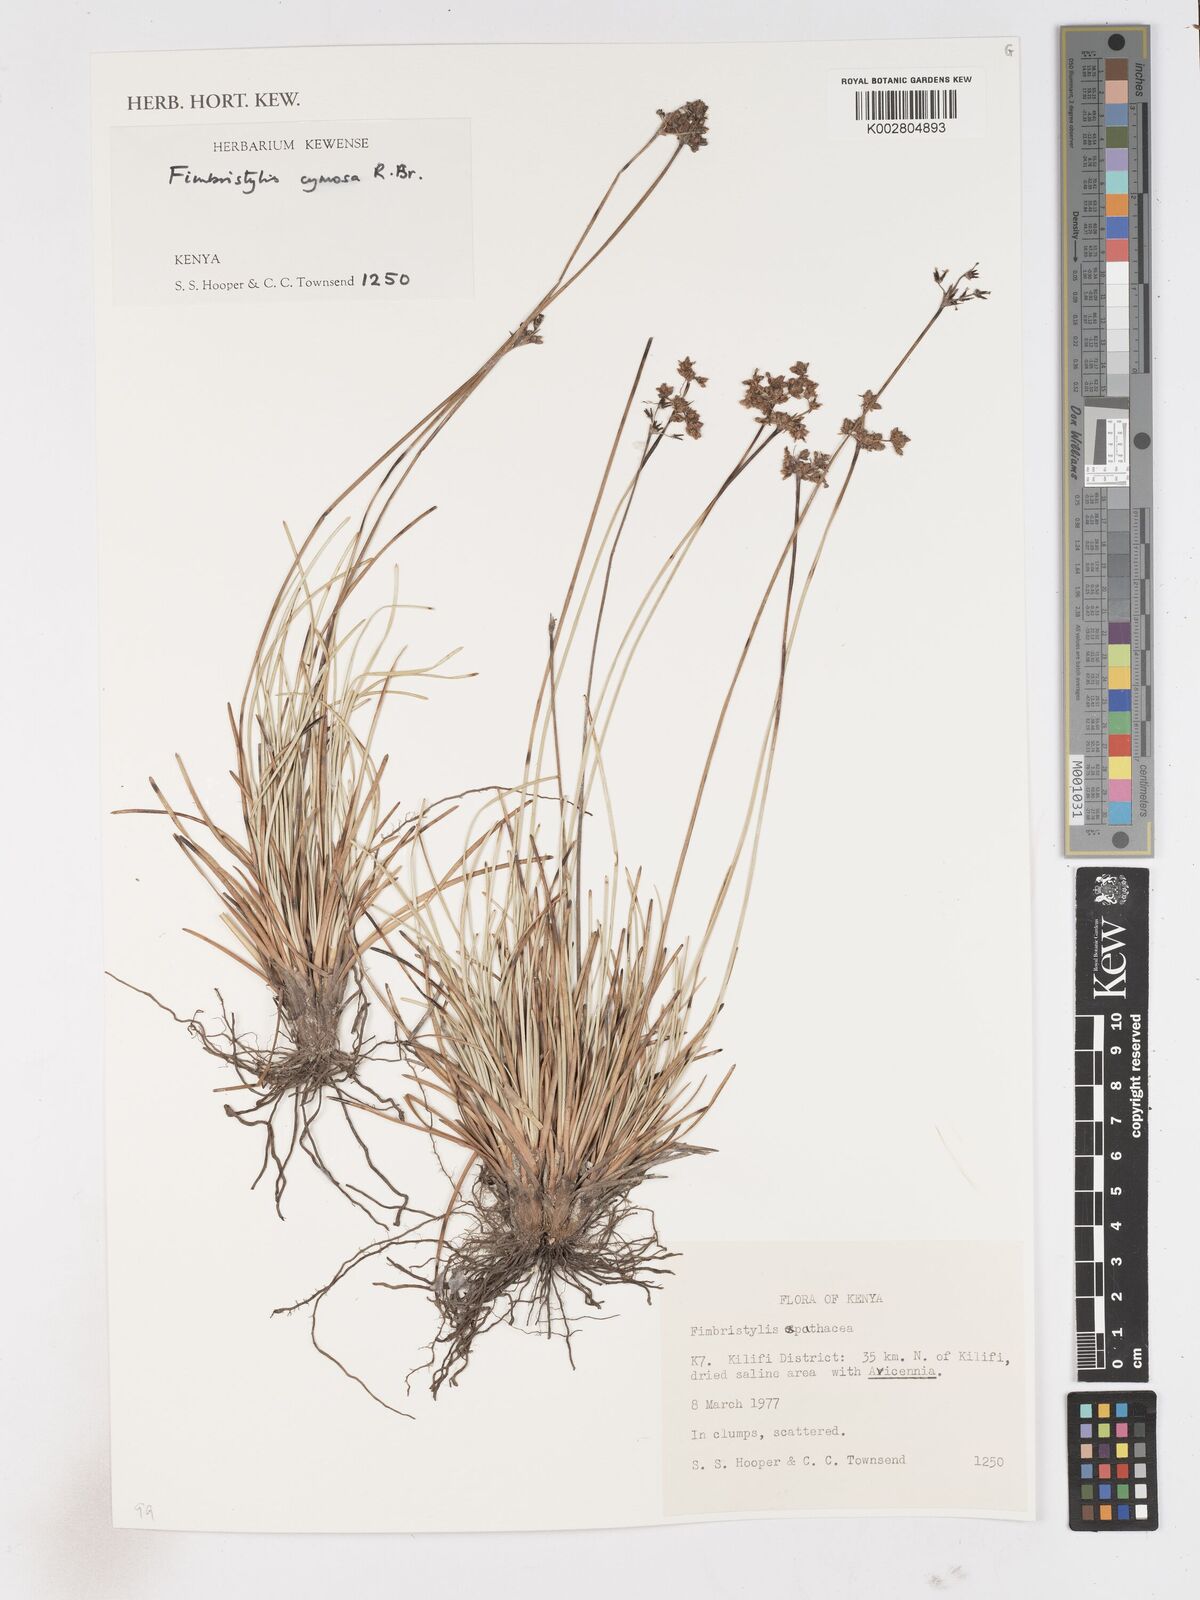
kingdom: Plantae
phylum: Tracheophyta
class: Liliopsida
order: Poales
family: Cyperaceae
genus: Fimbristylis
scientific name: Fimbristylis cymosa
